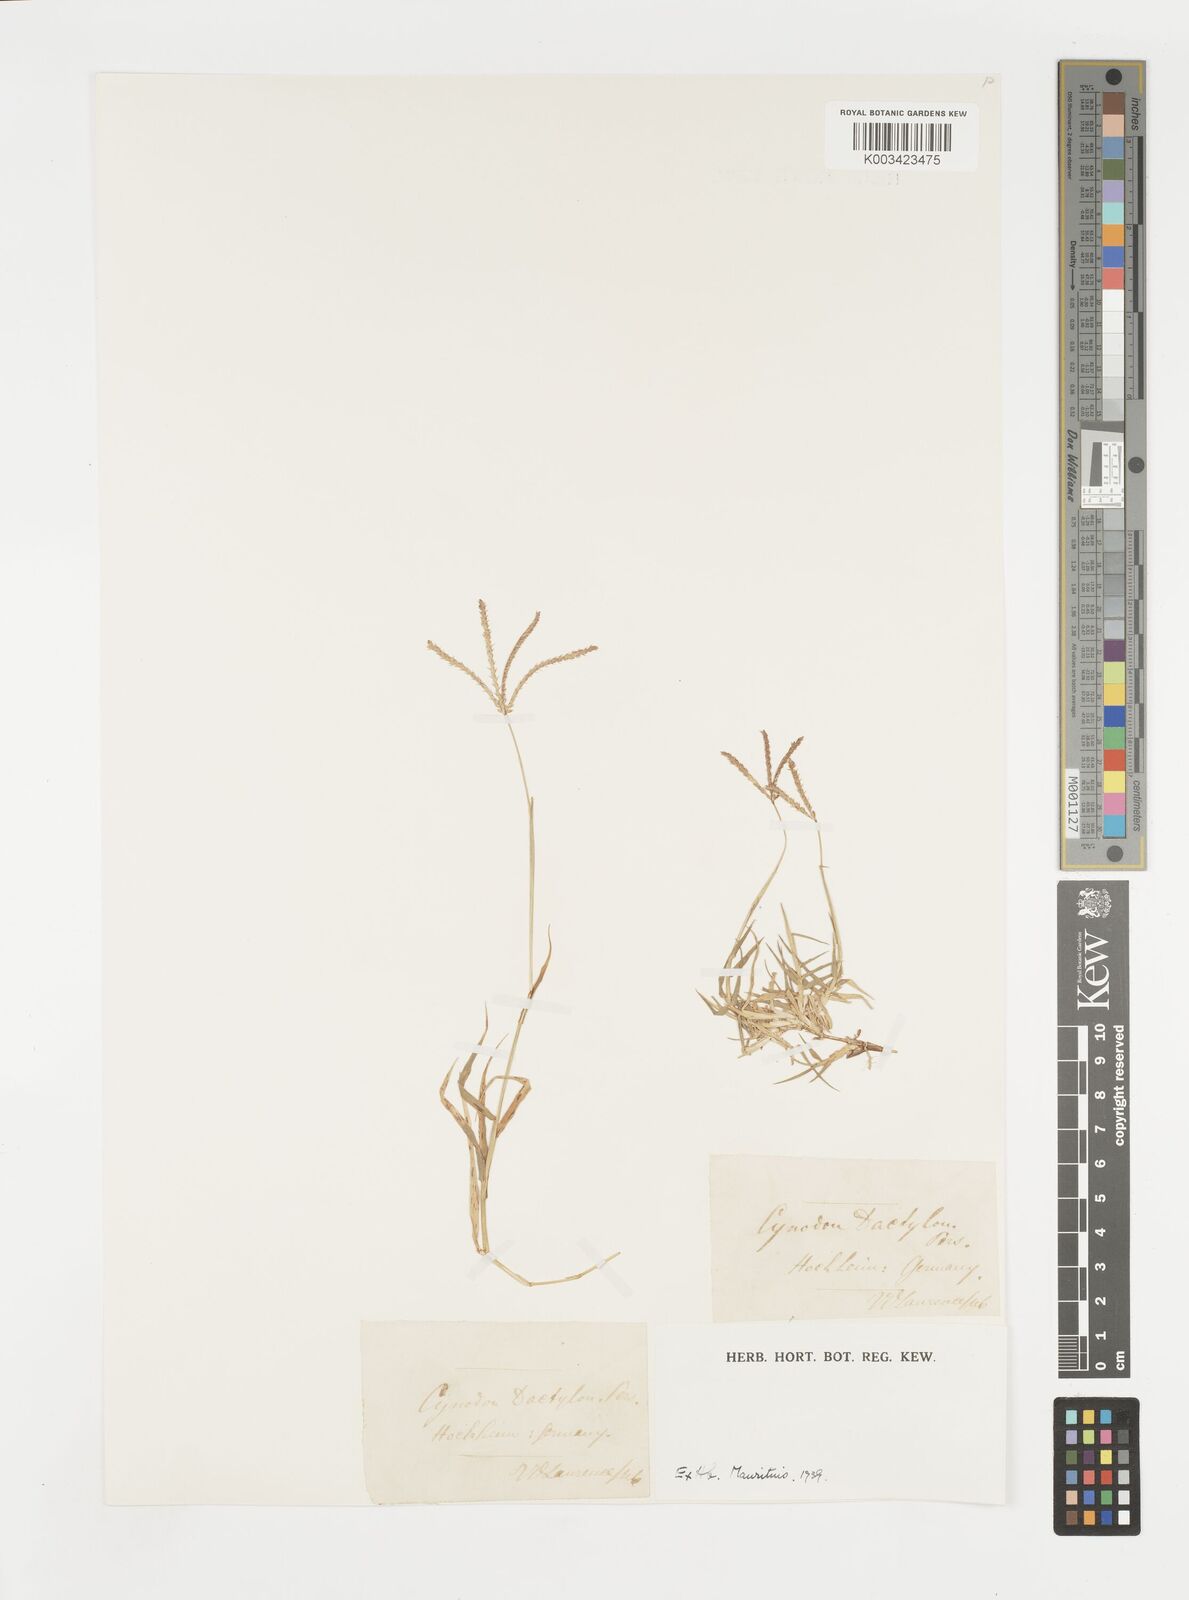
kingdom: Plantae
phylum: Tracheophyta
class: Liliopsida
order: Poales
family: Poaceae
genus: Cynodon
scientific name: Cynodon dactylon
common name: Bermuda grass
